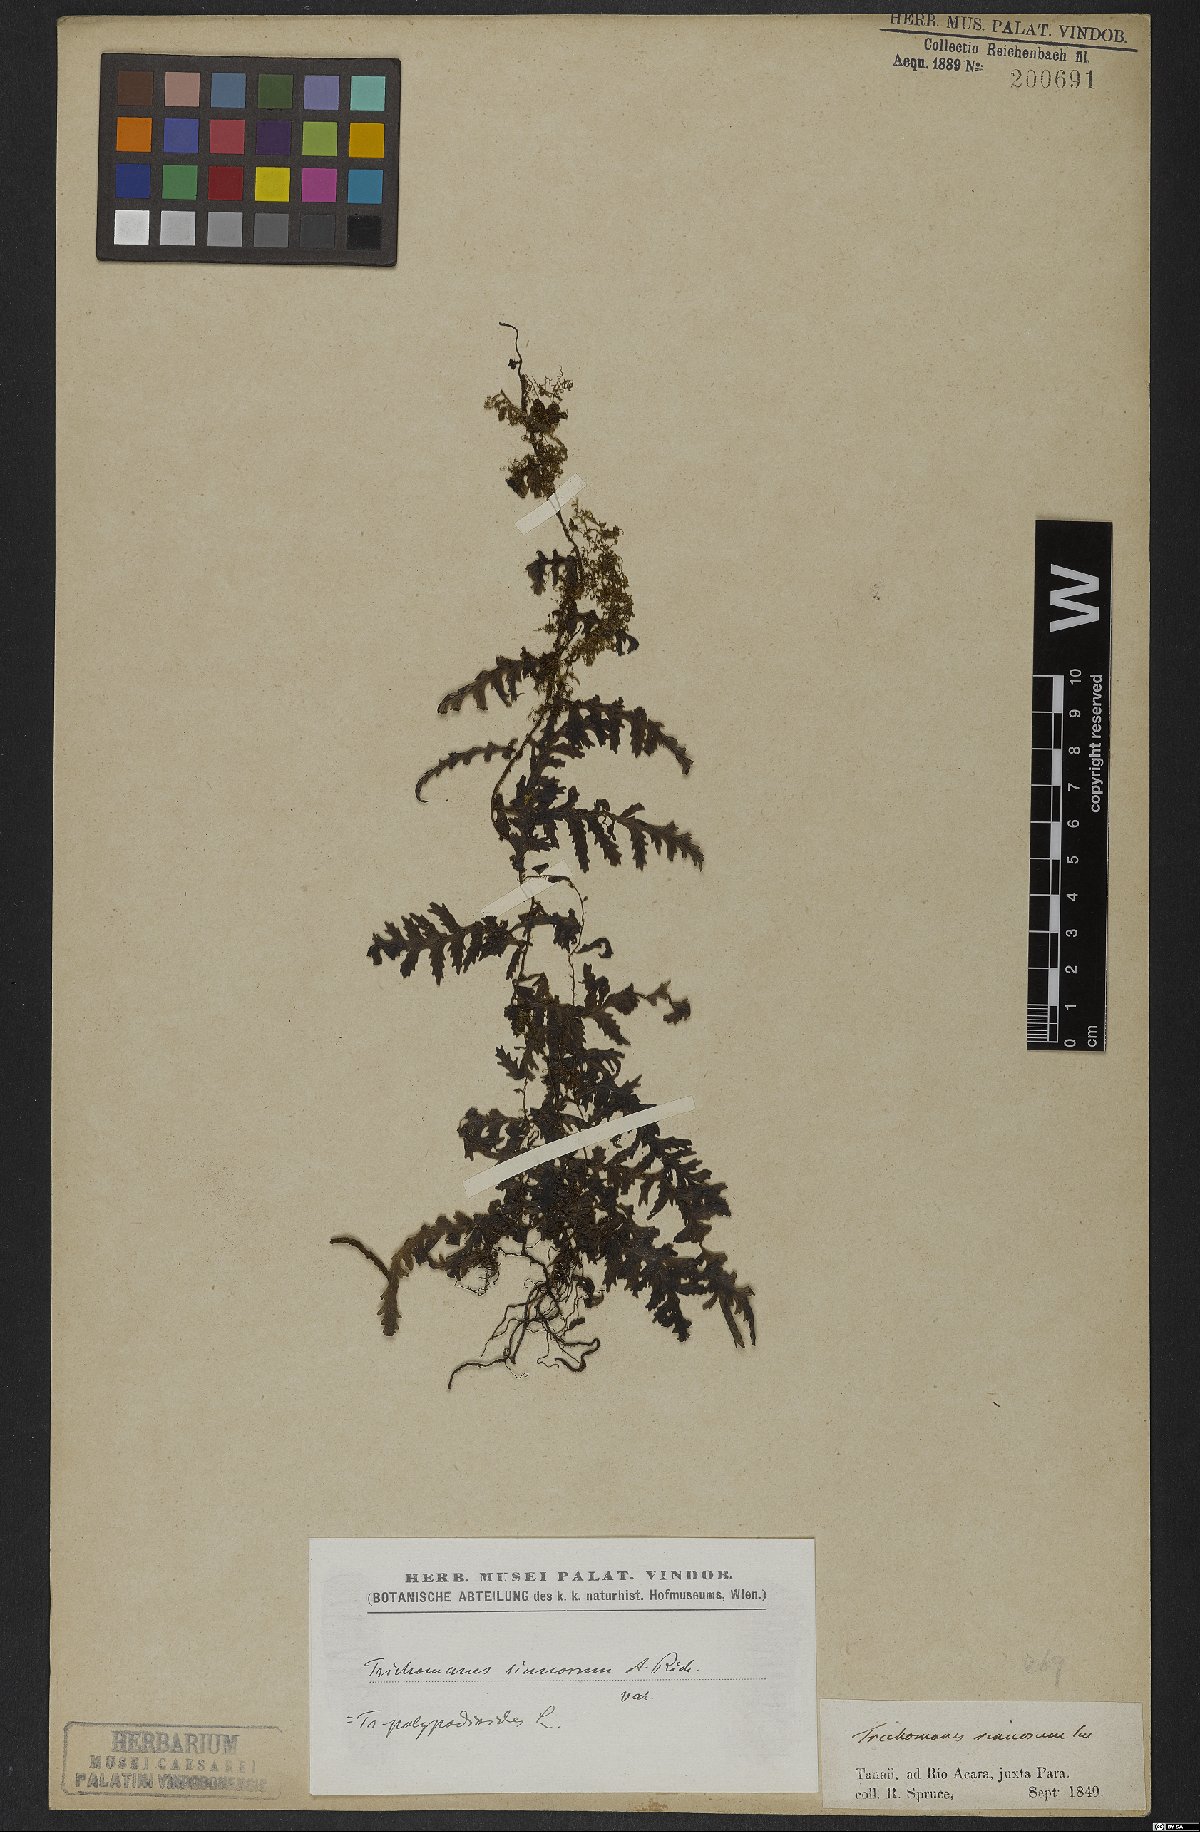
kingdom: Plantae
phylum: Tracheophyta
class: Polypodiopsida
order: Hymenophyllales
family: Hymenophyllaceae
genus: Trichomanes
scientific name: Trichomanes polypodioides
